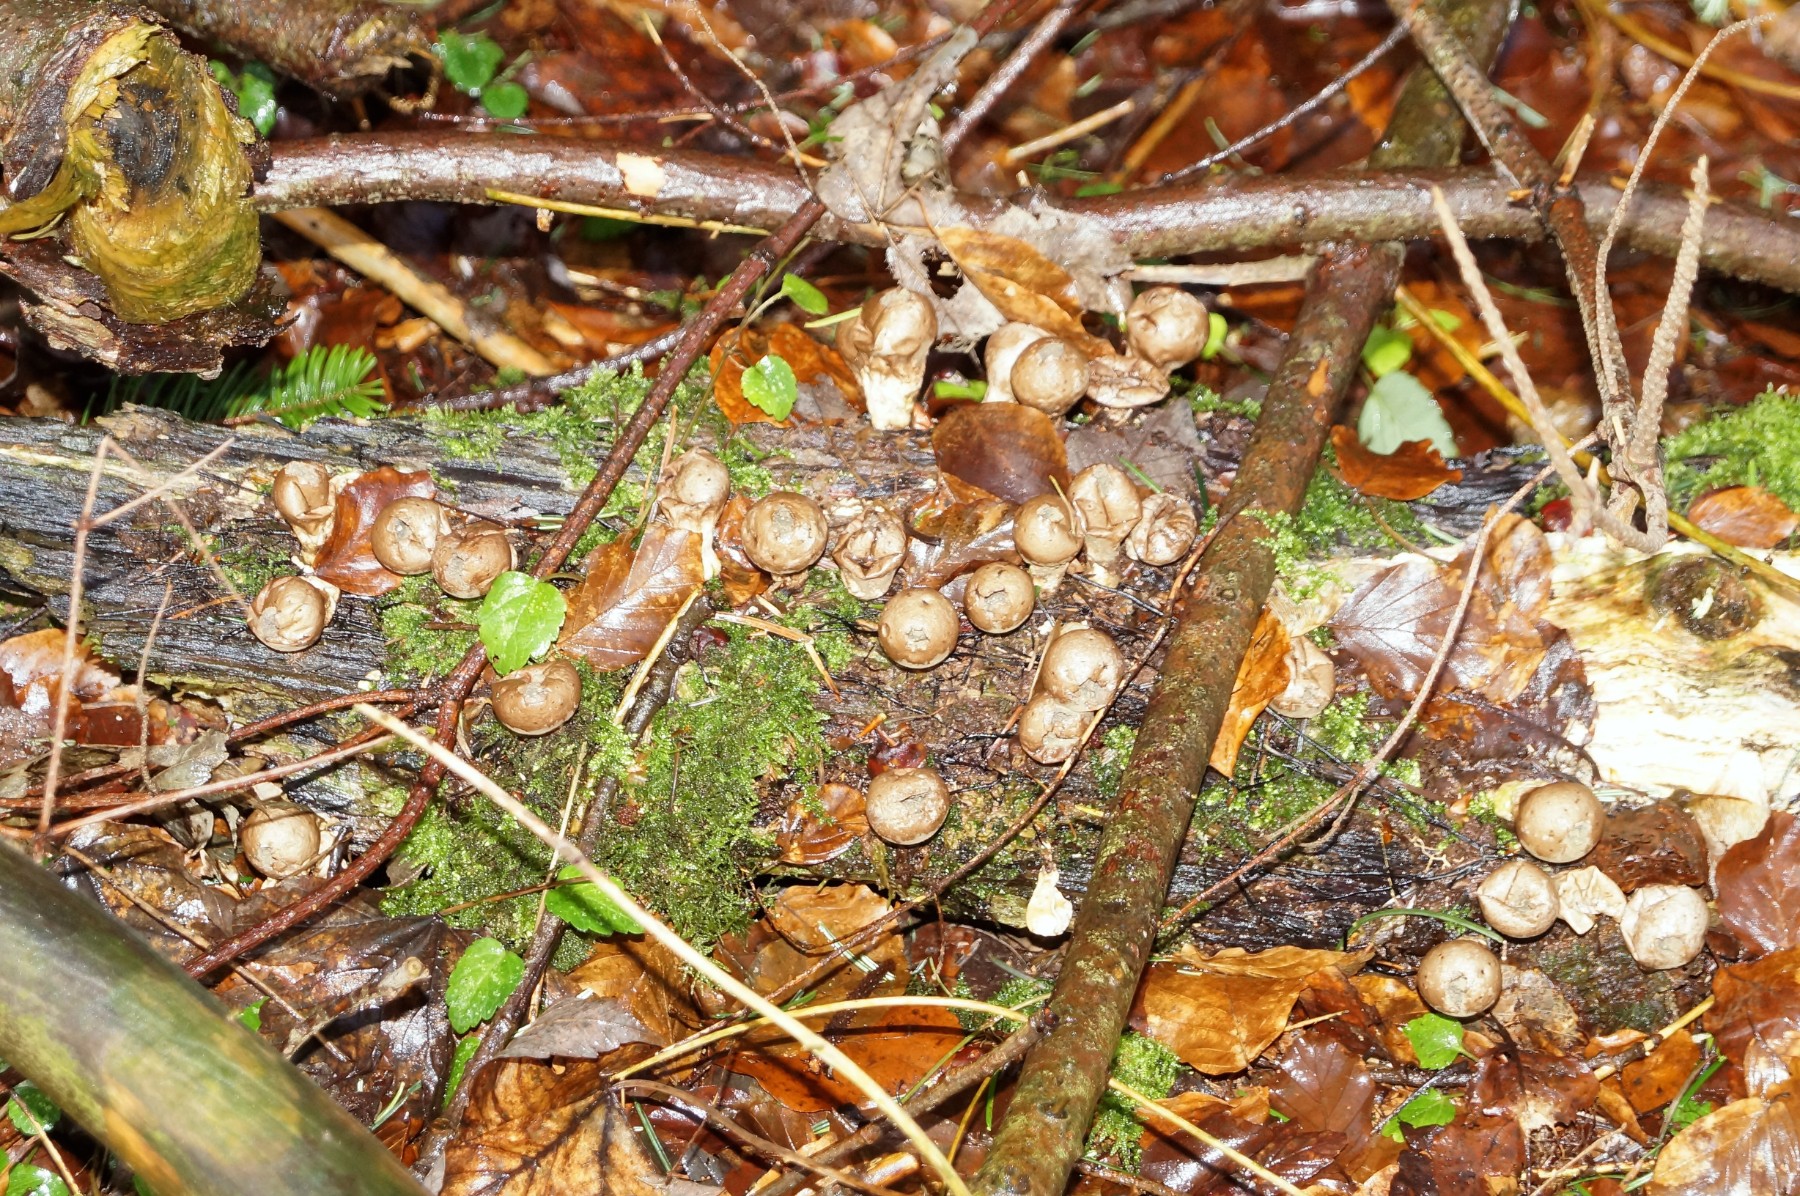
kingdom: Fungi
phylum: Basidiomycota
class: Agaricomycetes
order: Agaricales
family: Lycoperdaceae
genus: Apioperdon
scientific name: Apioperdon pyriforme
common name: pære-støvbold
